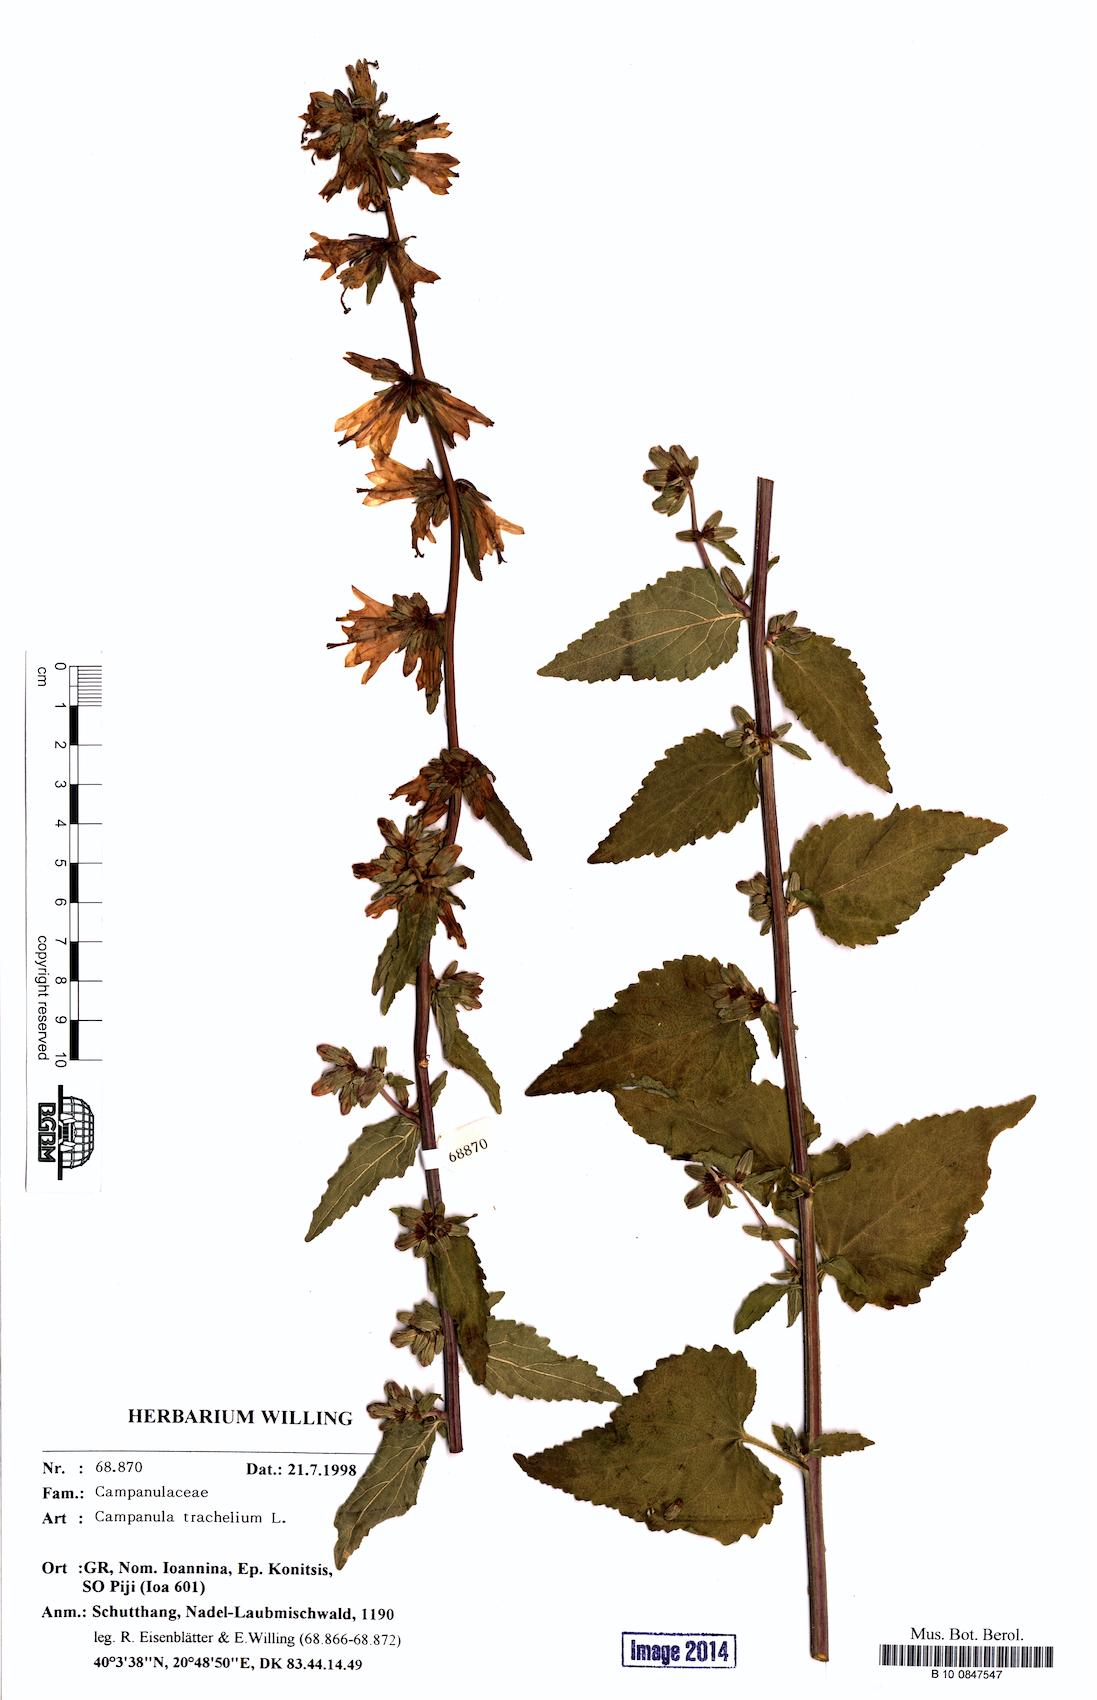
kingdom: Plantae
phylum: Tracheophyta
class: Magnoliopsida
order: Asterales
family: Campanulaceae
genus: Campanula
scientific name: Campanula trachelium
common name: Nettle-leaved bellflower
